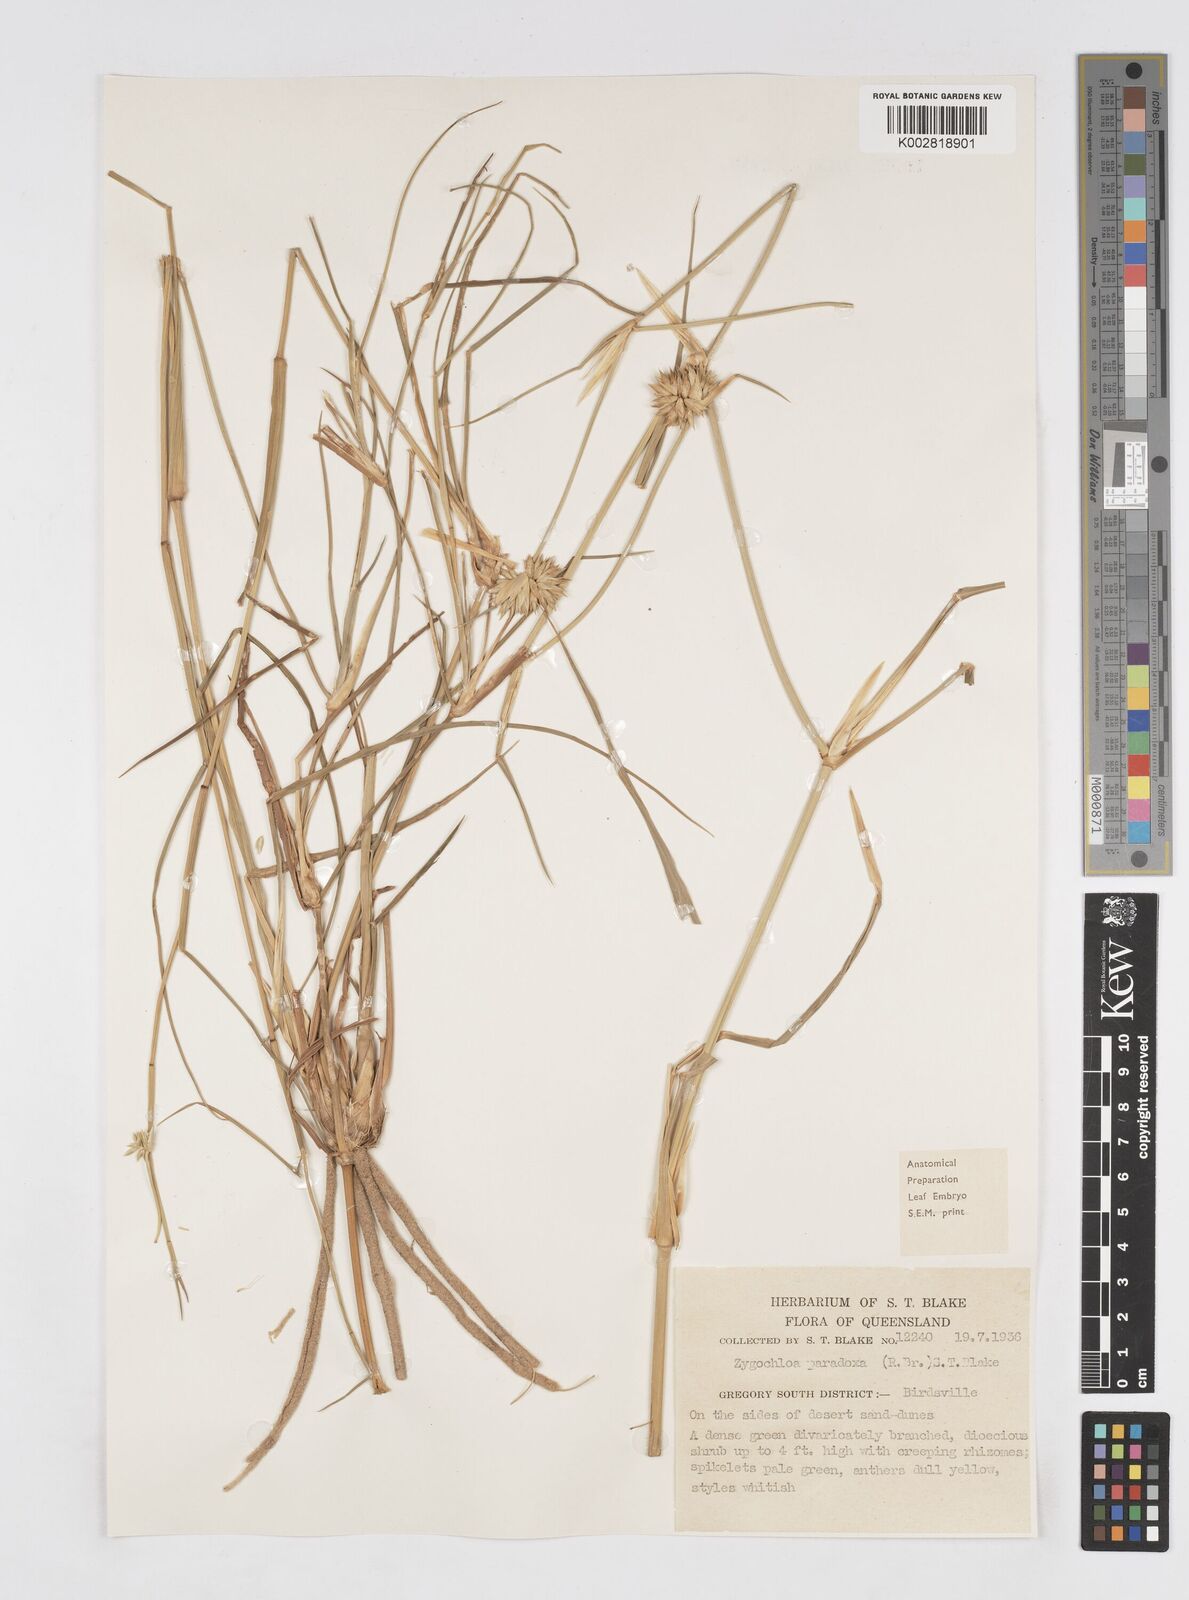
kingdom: Plantae
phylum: Tracheophyta
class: Liliopsida
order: Poales
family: Poaceae
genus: Zygochloa
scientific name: Zygochloa paradoxa
